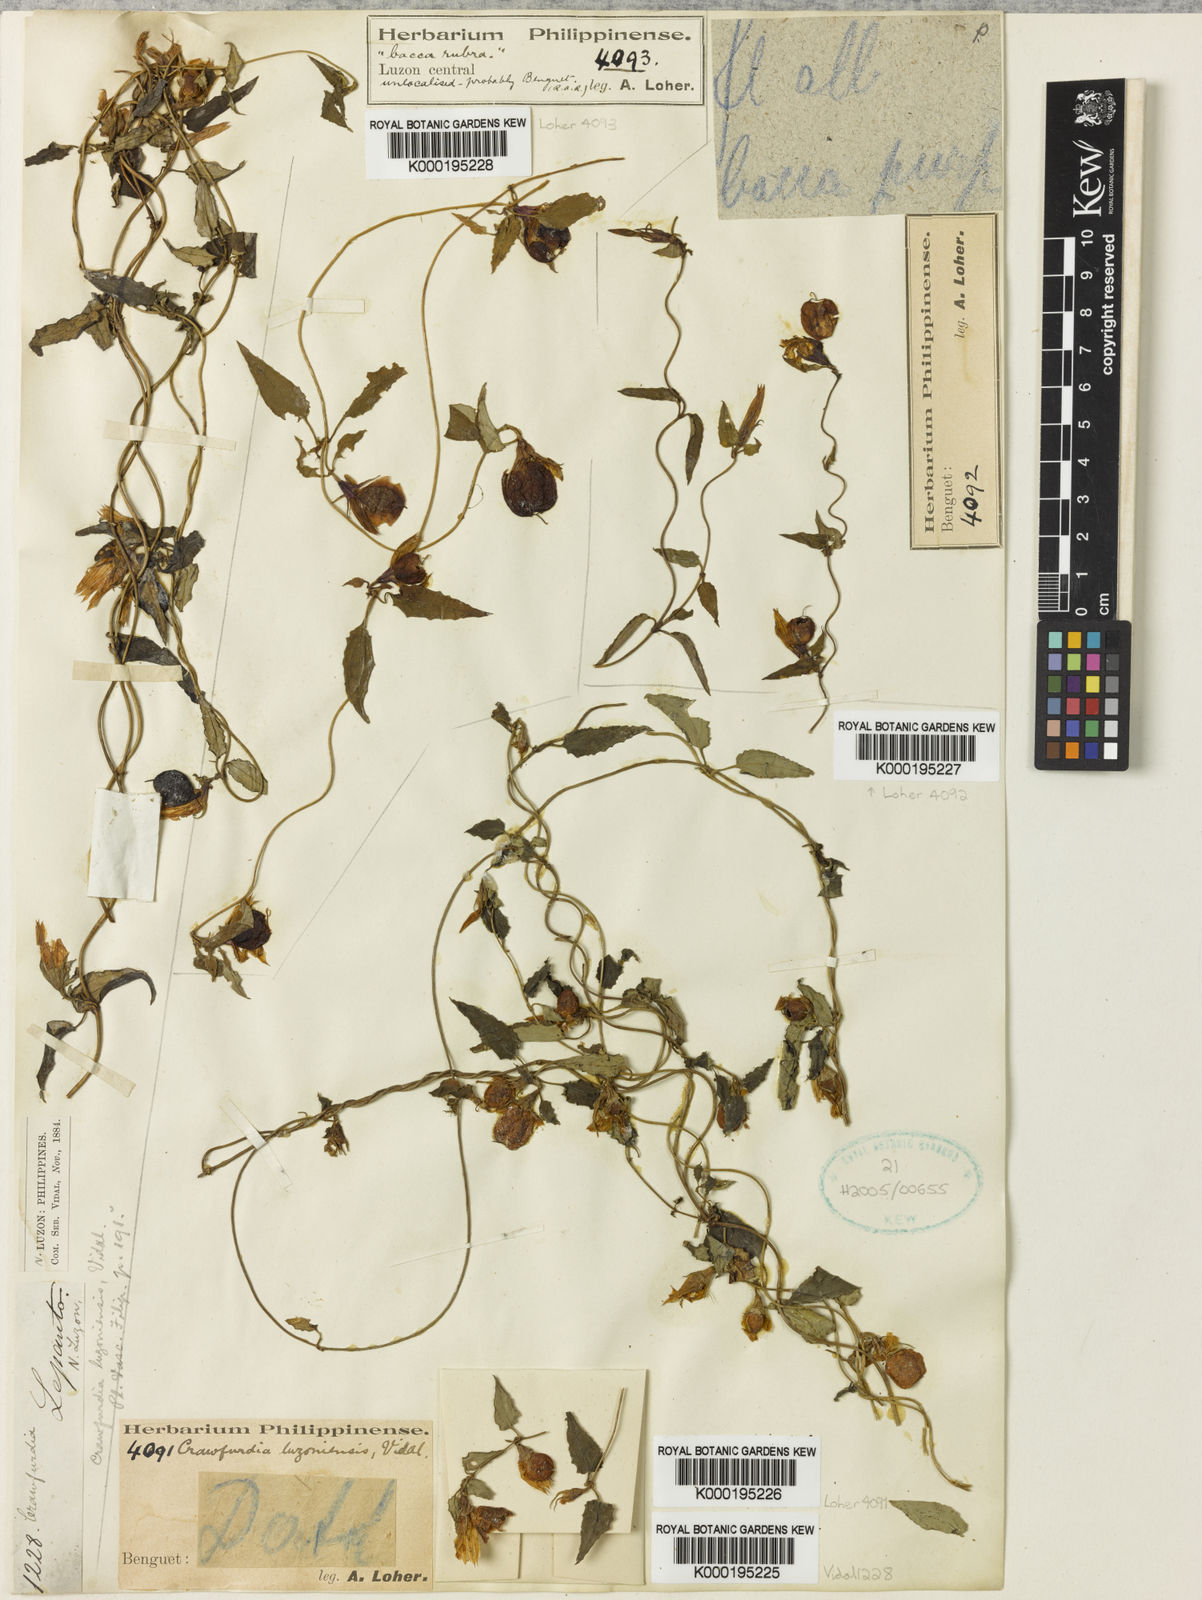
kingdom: Plantae
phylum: Tracheophyta
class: Magnoliopsida
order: Gentianales
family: Gentianaceae
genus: Tripterospermum
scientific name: Tripterospermum
